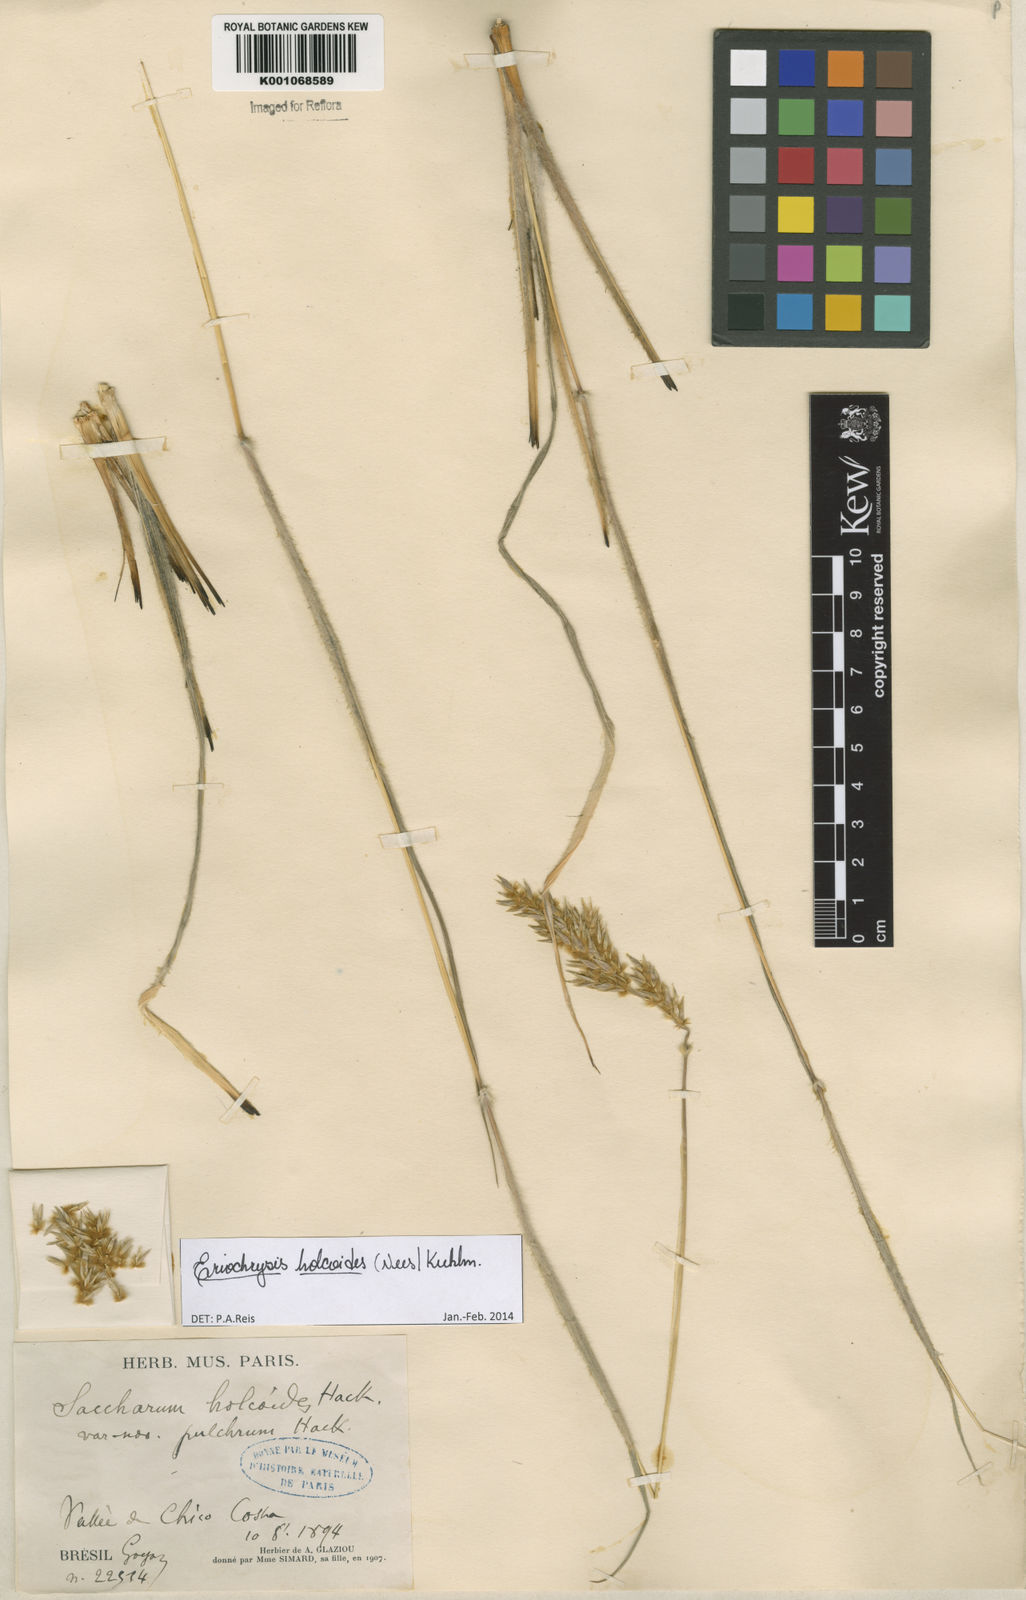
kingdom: Plantae
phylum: Tracheophyta
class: Liliopsida
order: Poales
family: Poaceae
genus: Eriochrysis
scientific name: Eriochrysis holcoides
